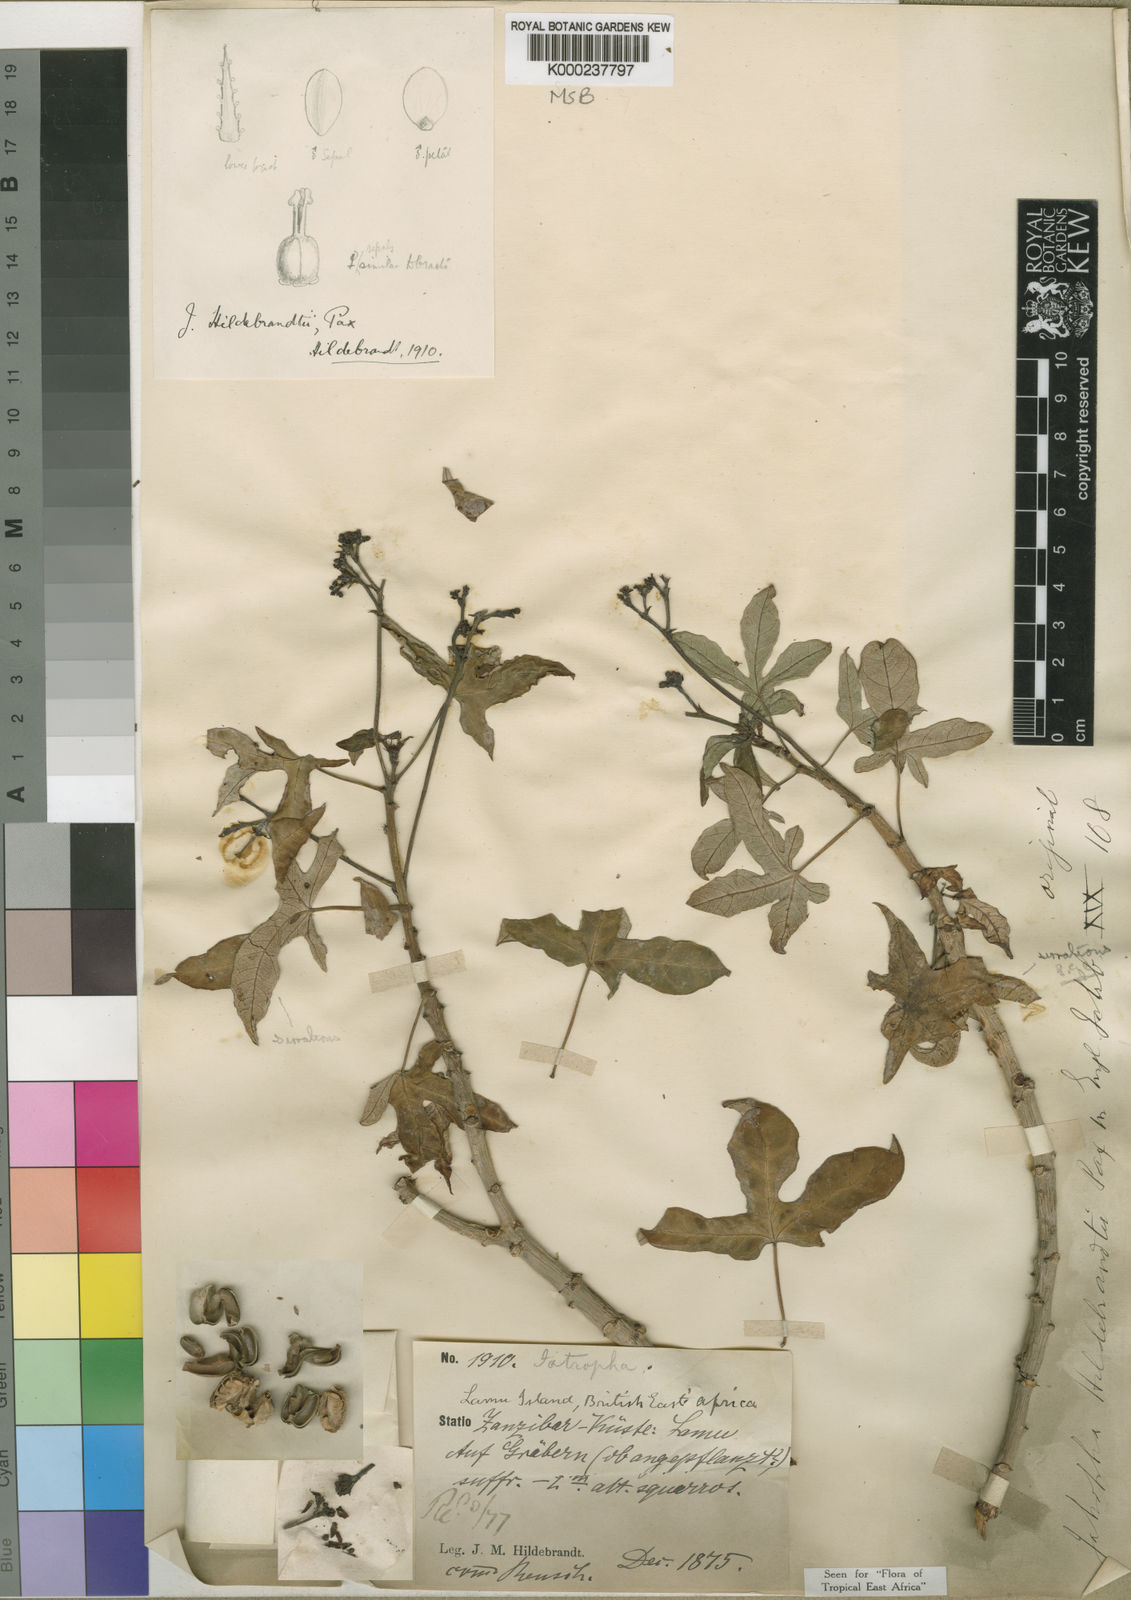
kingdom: Plantae
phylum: Tracheophyta
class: Magnoliopsida
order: Malpighiales
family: Euphorbiaceae
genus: Jatropha
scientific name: Jatropha hildebrandtii
